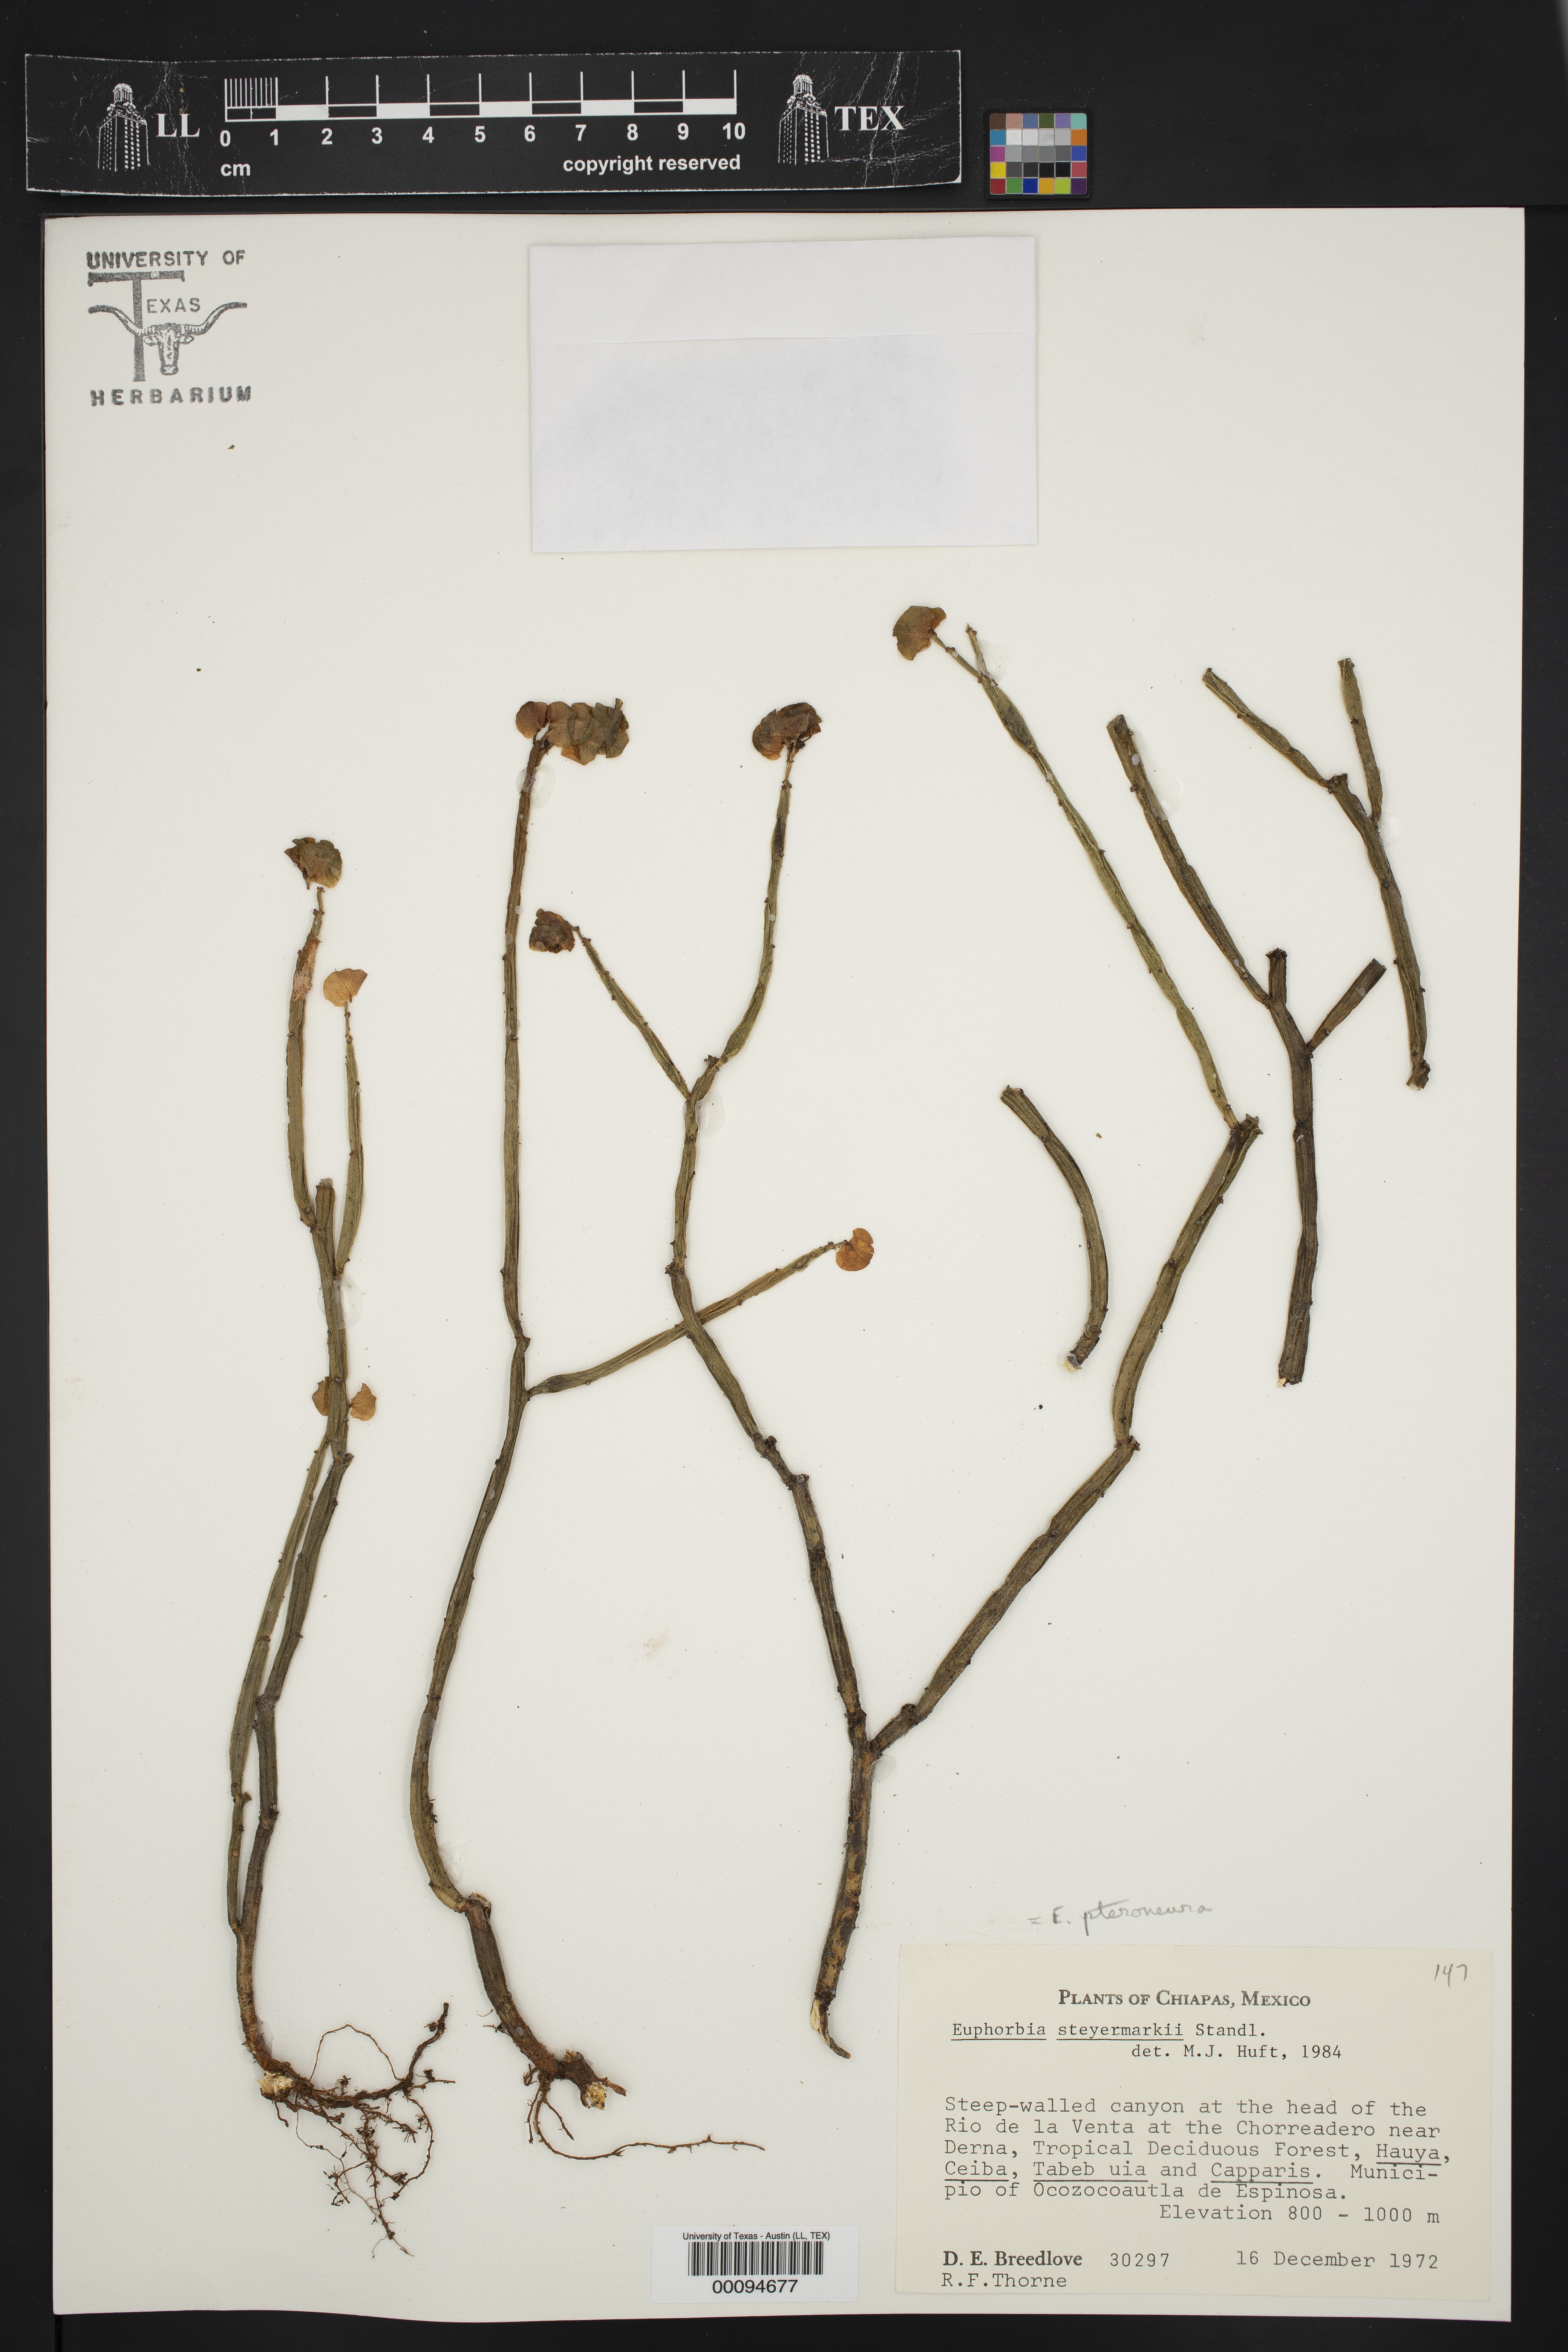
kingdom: Plantae
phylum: Tracheophyta
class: Magnoliopsida
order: Malpighiales
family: Euphorbiaceae
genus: Euphorbia
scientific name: Euphorbia pteroneura
